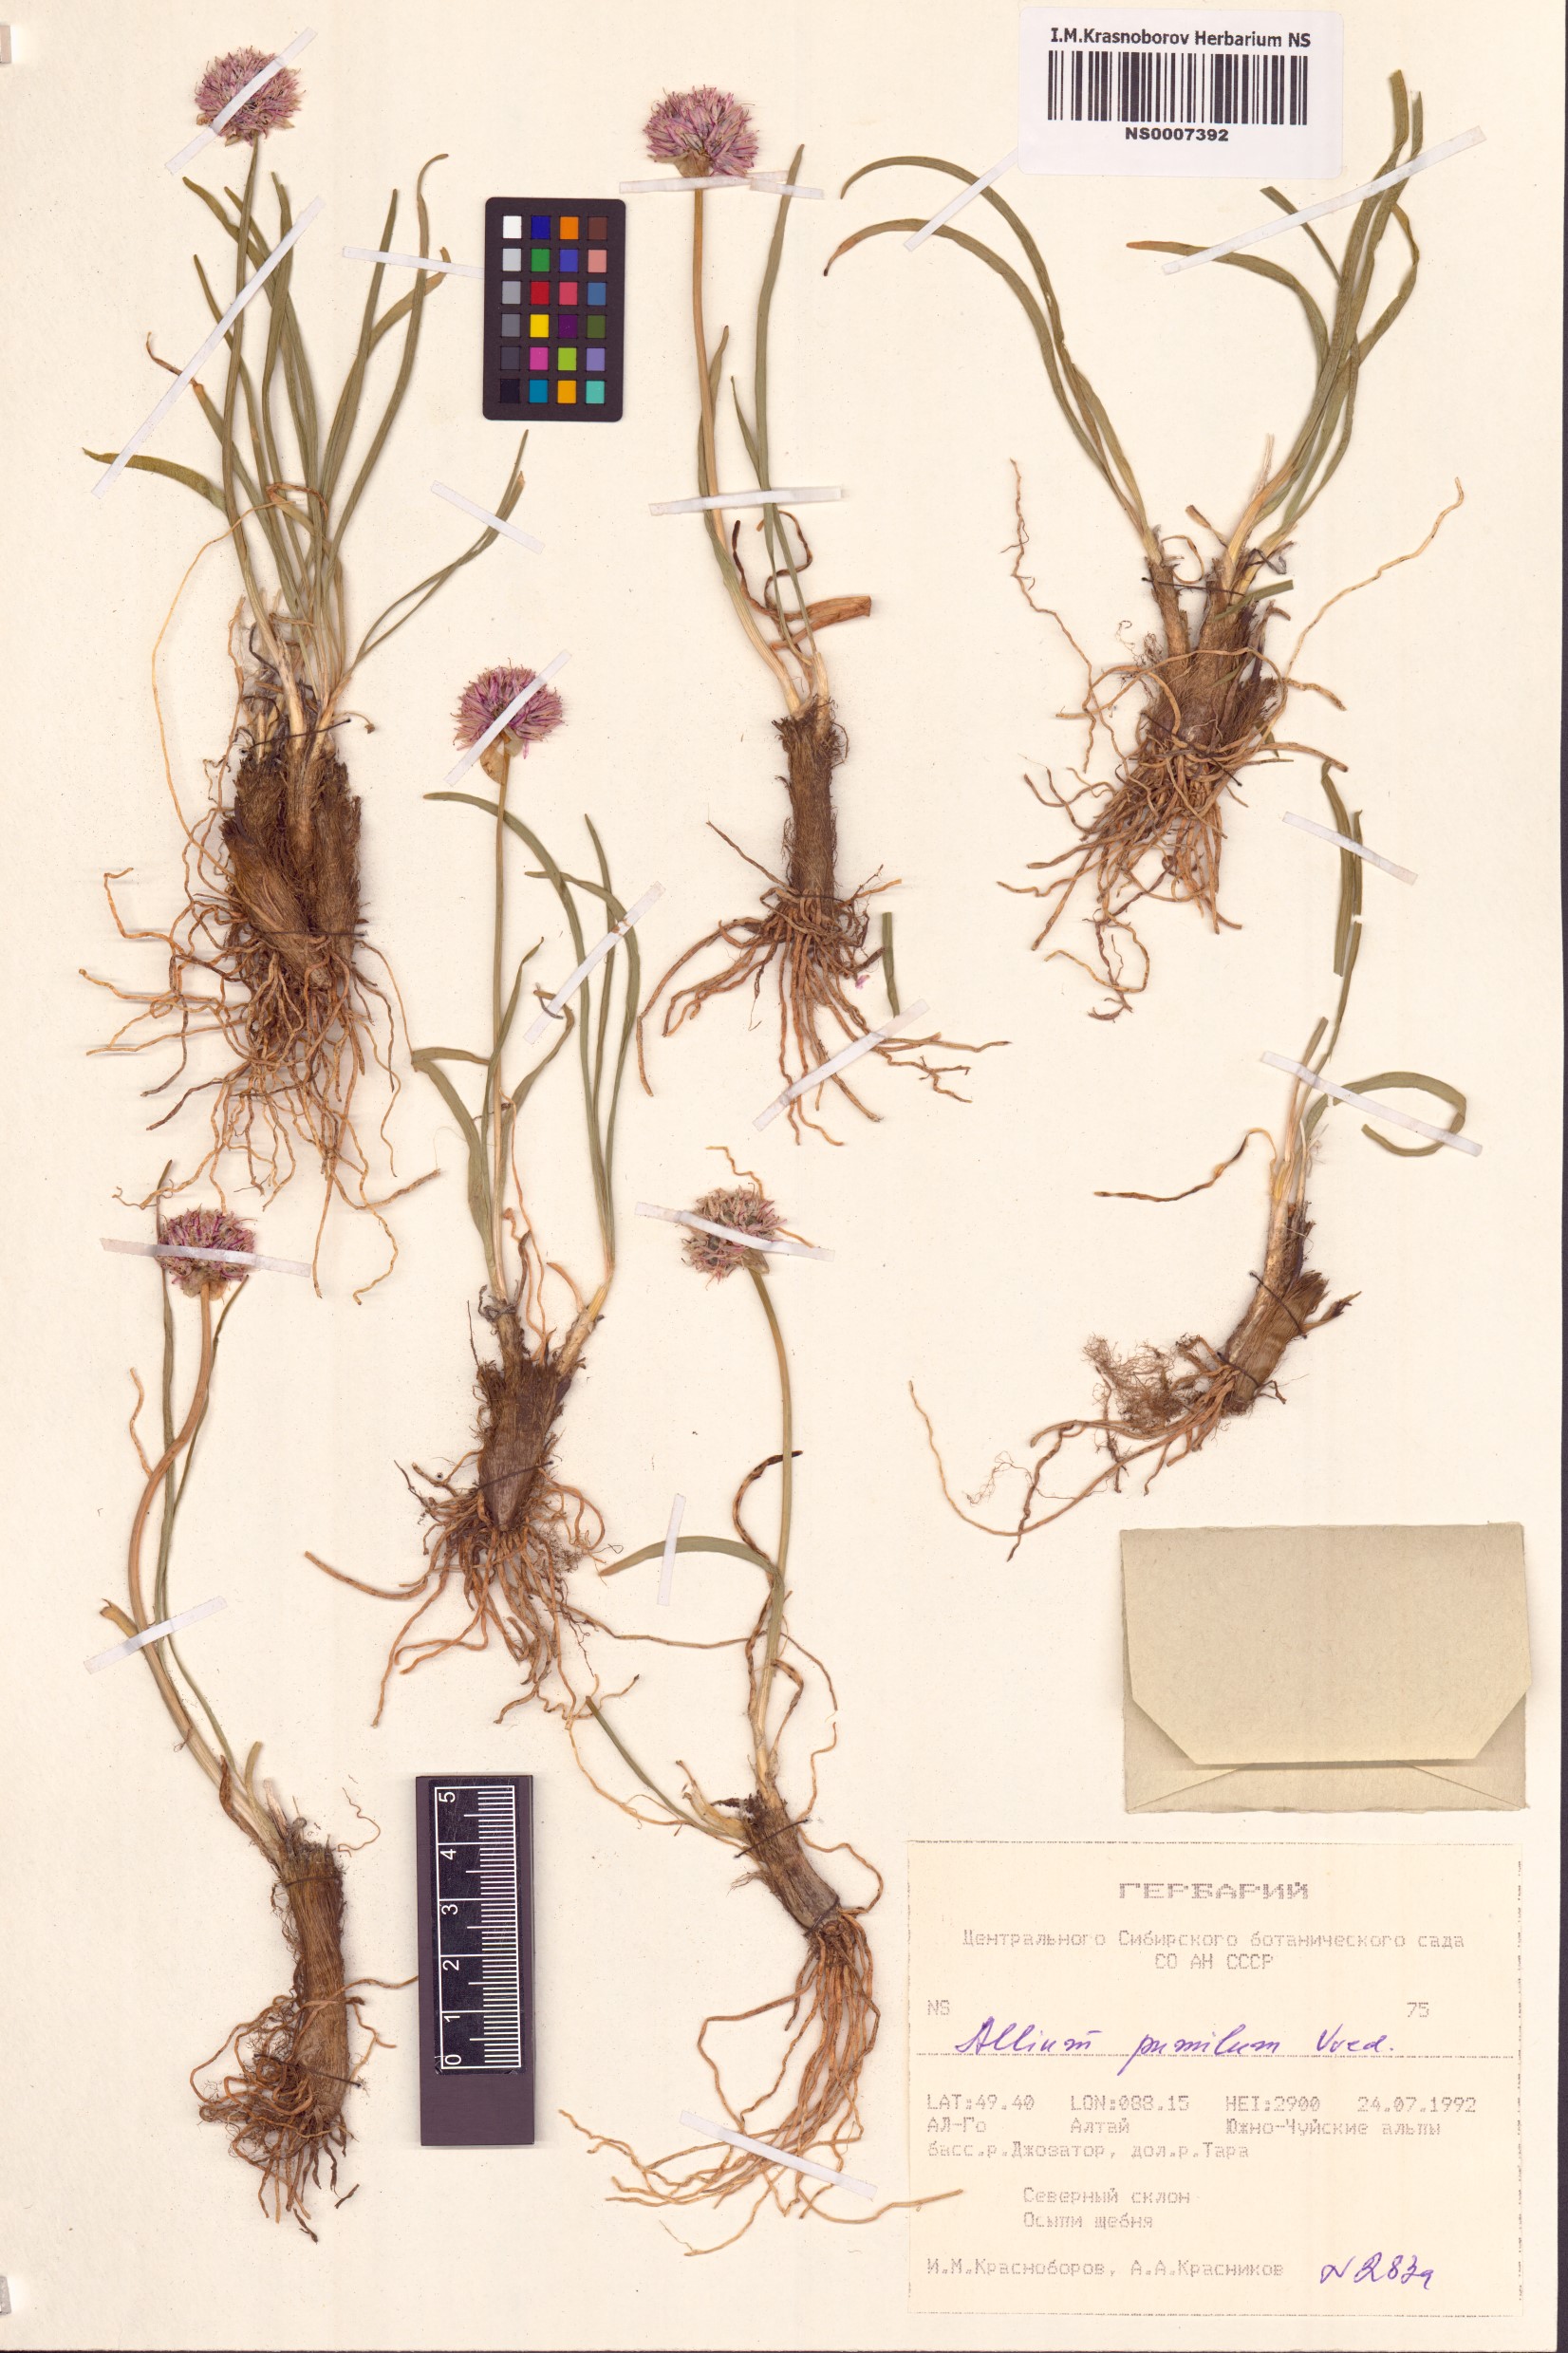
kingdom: Plantae
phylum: Tracheophyta
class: Liliopsida
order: Asparagales
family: Amaryllidaceae
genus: Allium
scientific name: Allium pumilum
